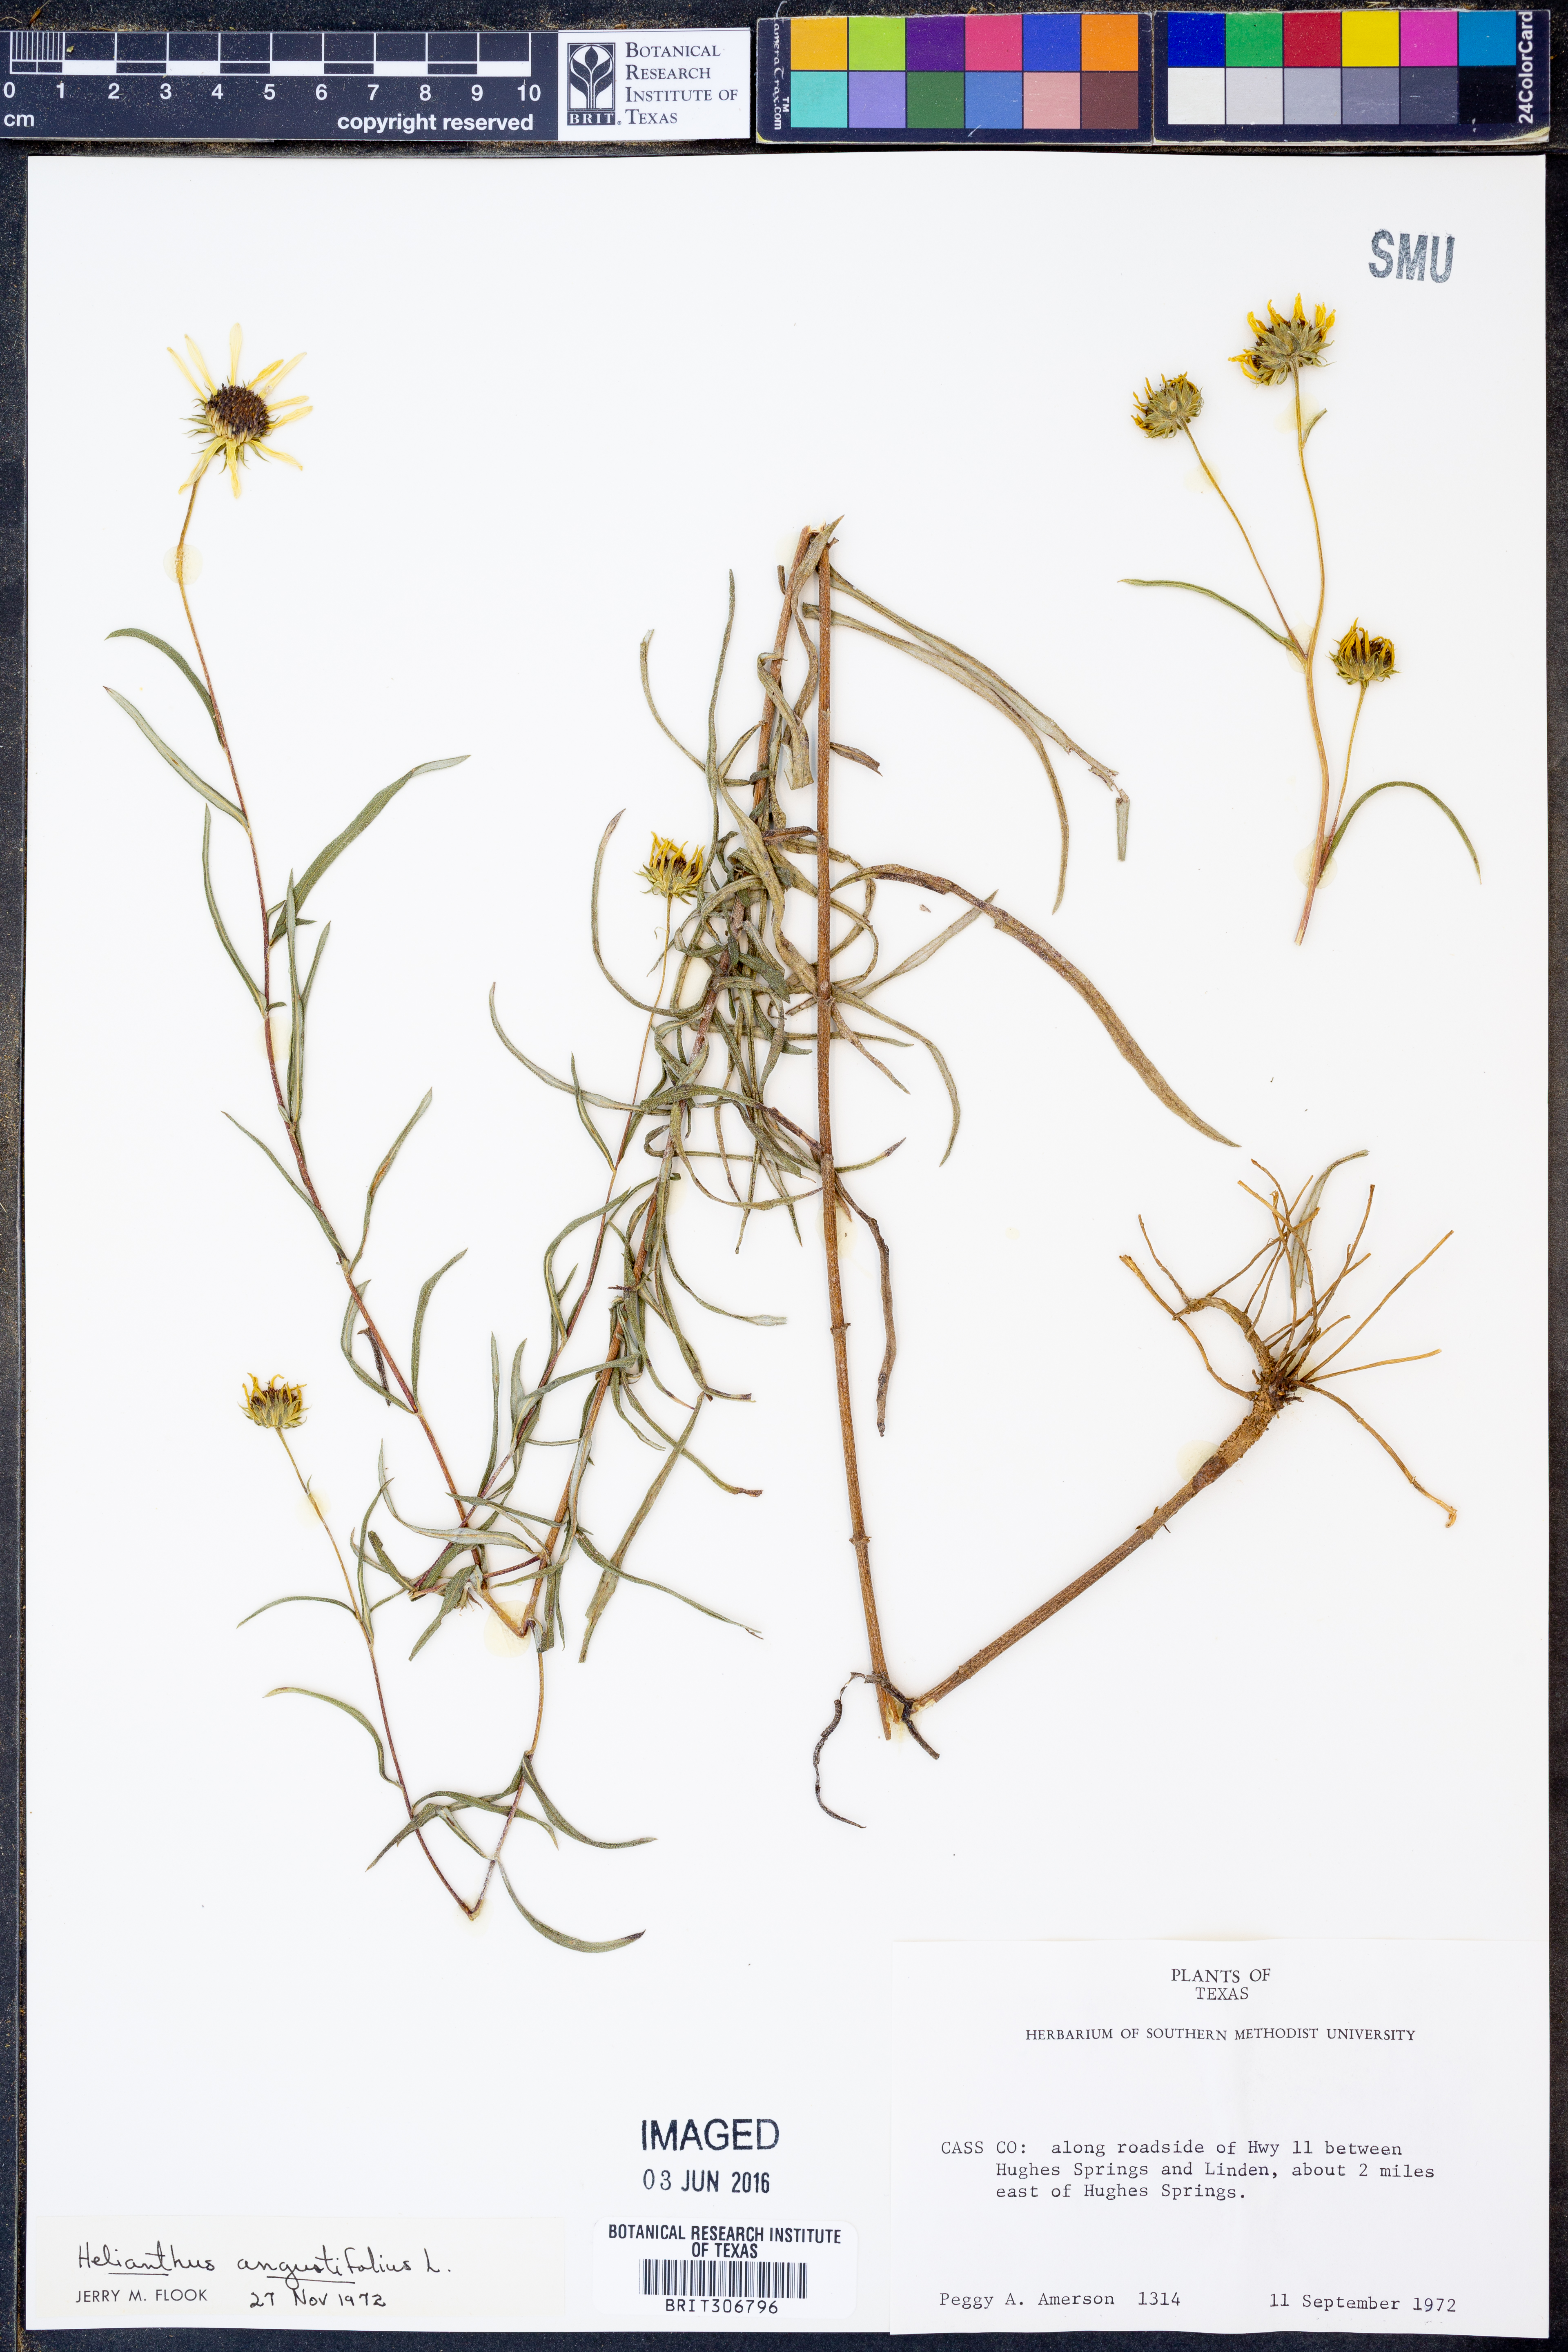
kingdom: Plantae
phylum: Tracheophyta
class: Magnoliopsida
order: Asterales
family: Asteraceae
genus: Helianthus
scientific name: Helianthus angustifolius
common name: Swamp sunflower
